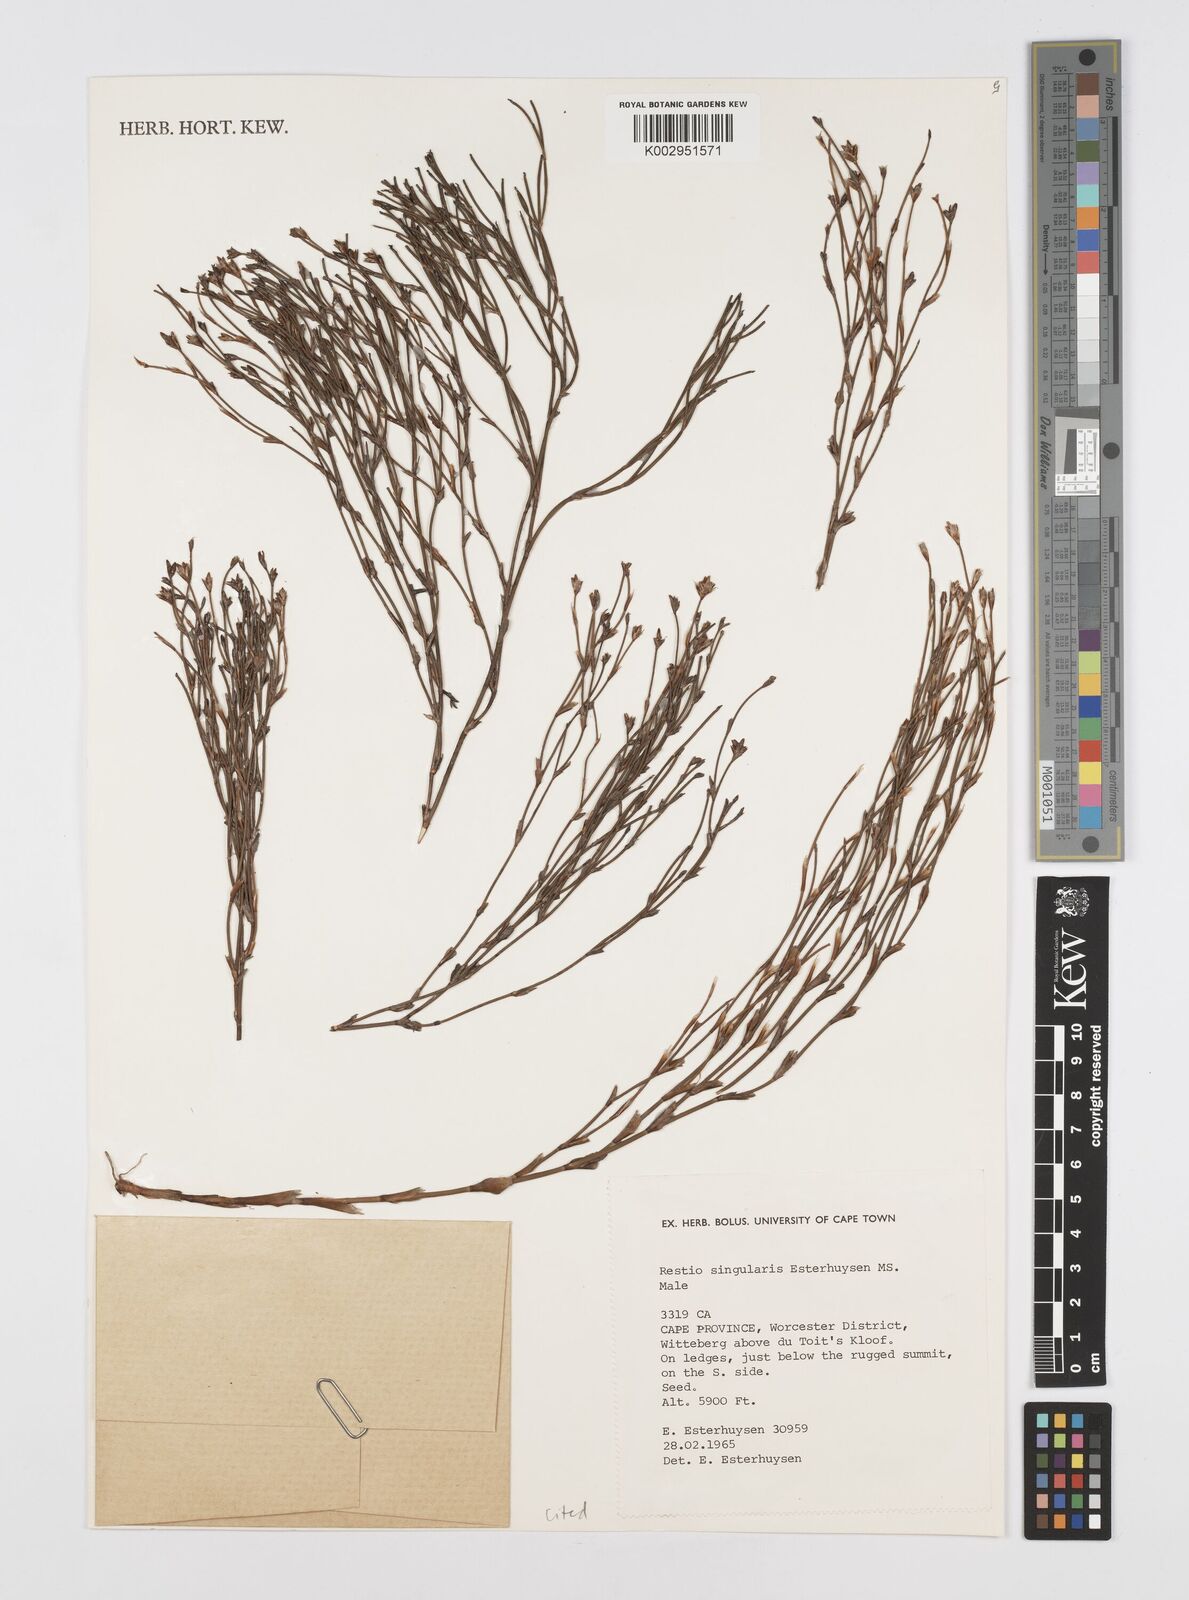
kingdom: Plantae
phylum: Tracheophyta
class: Liliopsida
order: Poales
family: Restionaceae
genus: Restio
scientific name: Restio singularis
